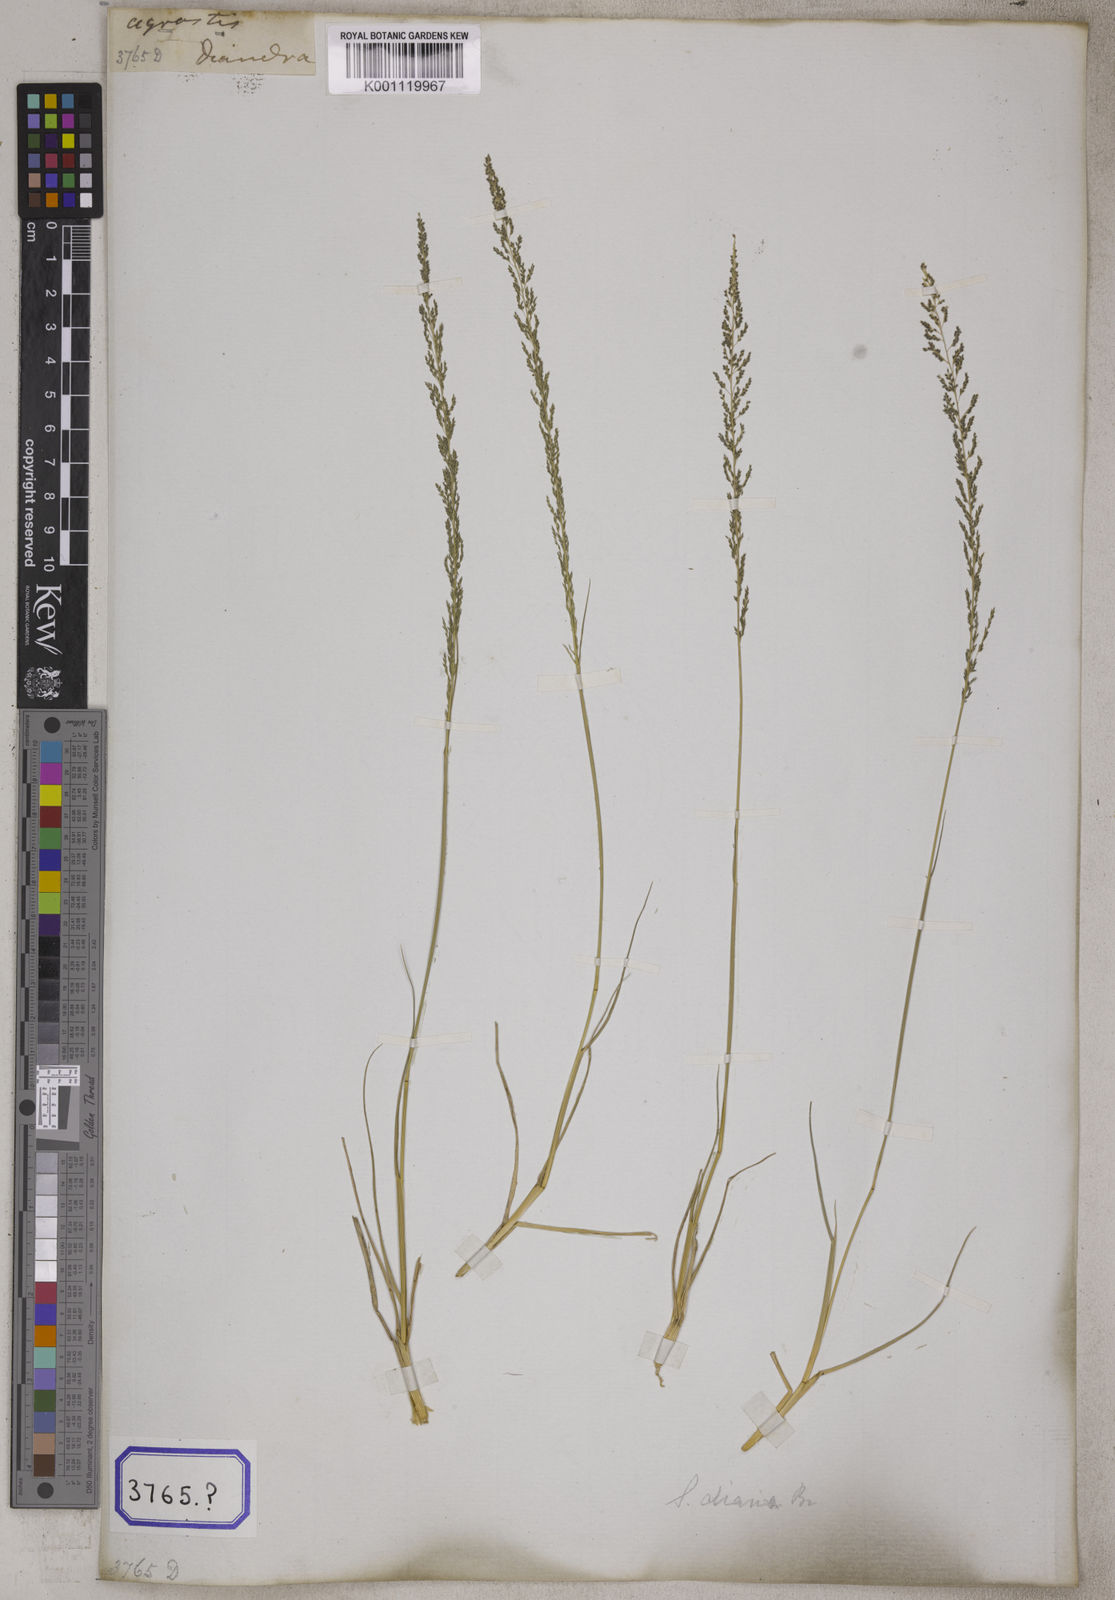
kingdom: Plantae
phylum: Tracheophyta
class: Liliopsida
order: Poales
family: Poaceae
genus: Sporobolus
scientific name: Sporobolus
